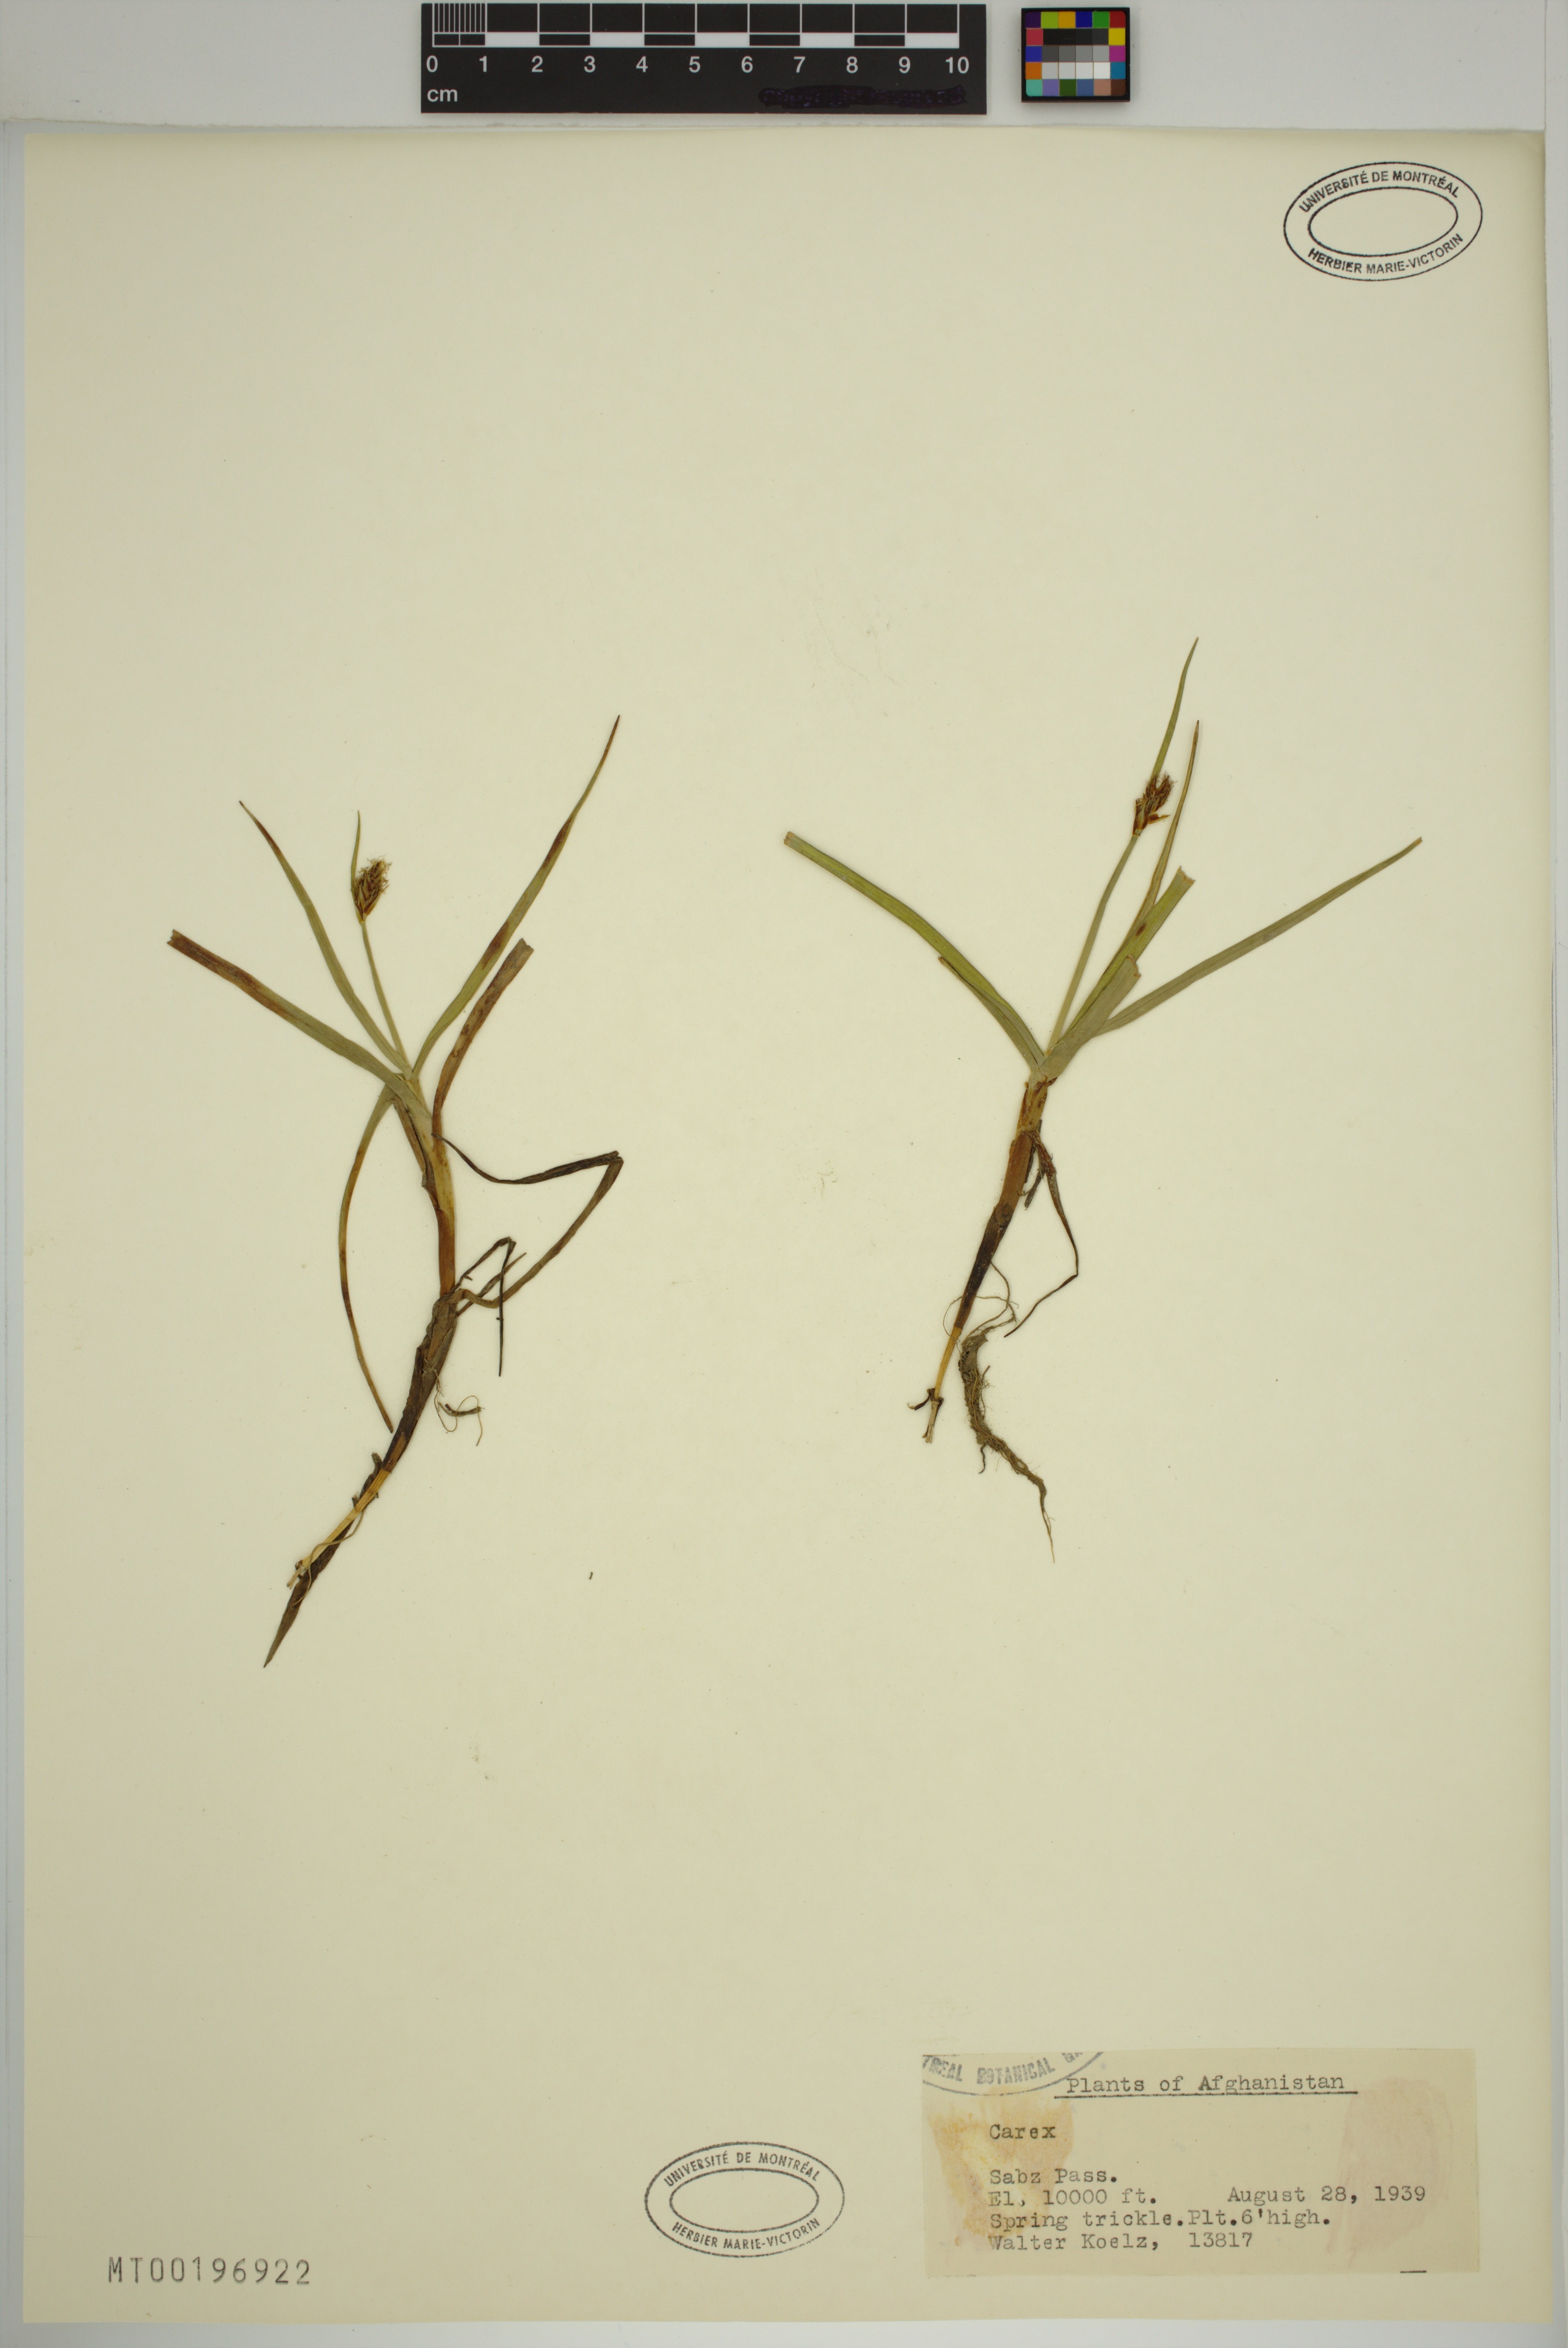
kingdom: Plantae
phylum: Tracheophyta
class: Liliopsida
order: Poales
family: Cyperaceae
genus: Carex
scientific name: Carex
